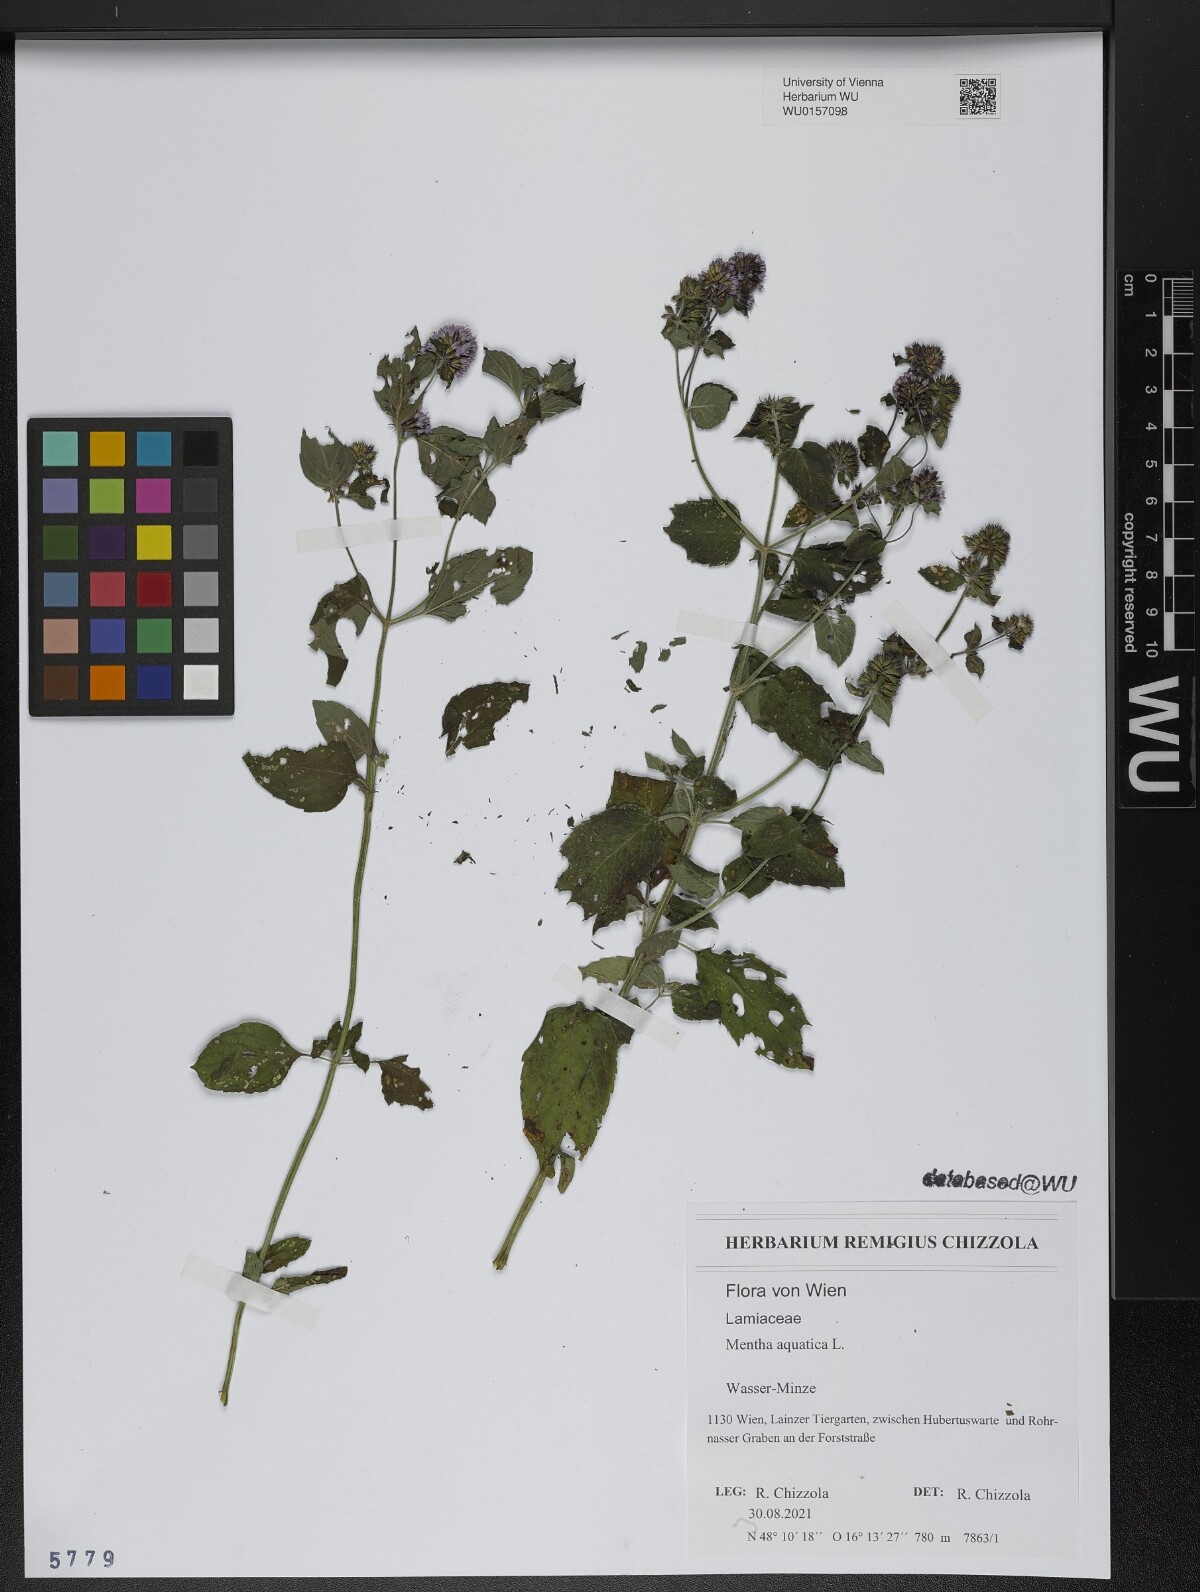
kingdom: Plantae
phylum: Tracheophyta
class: Magnoliopsida
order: Lamiales
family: Lamiaceae
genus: Mentha
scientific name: Mentha aquatica
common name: Water mint
